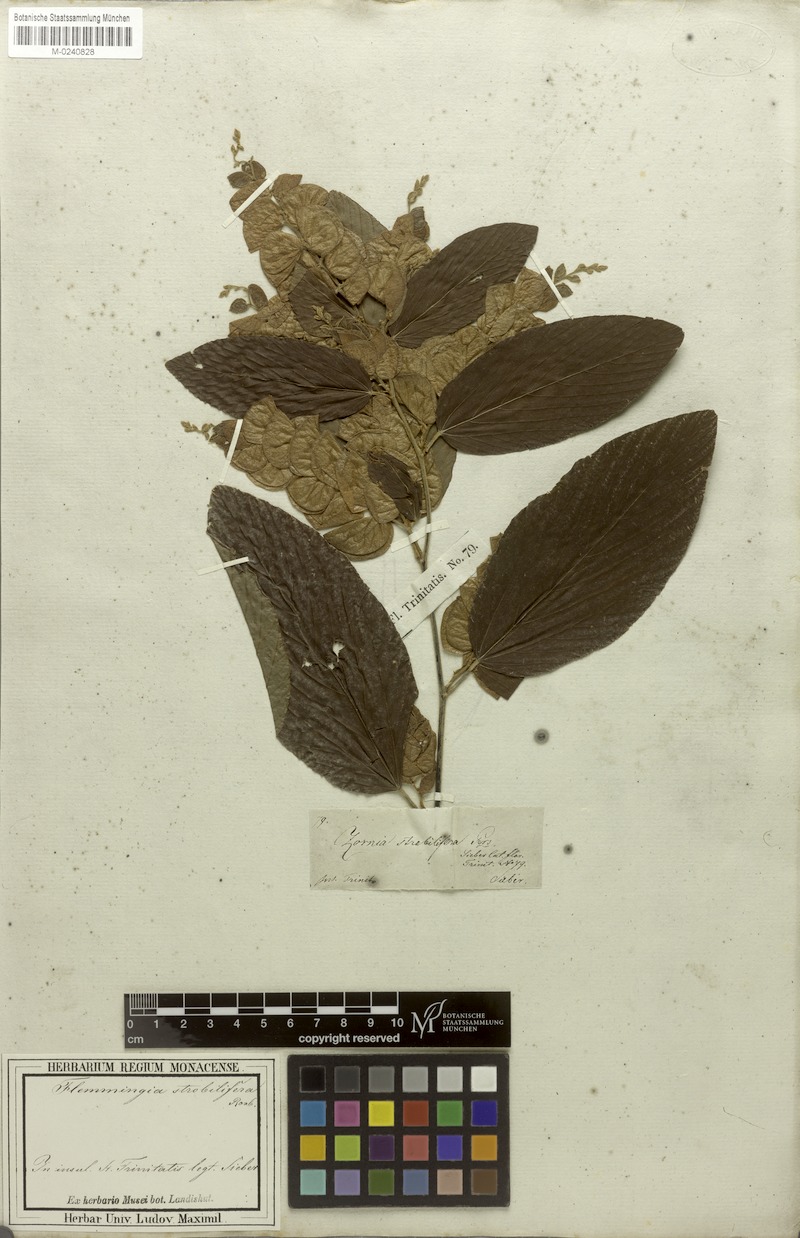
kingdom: Plantae
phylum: Tracheophyta
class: Magnoliopsida
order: Fabales
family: Fabaceae
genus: Flemingia
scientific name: Flemingia strobilifera
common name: Wild hops
